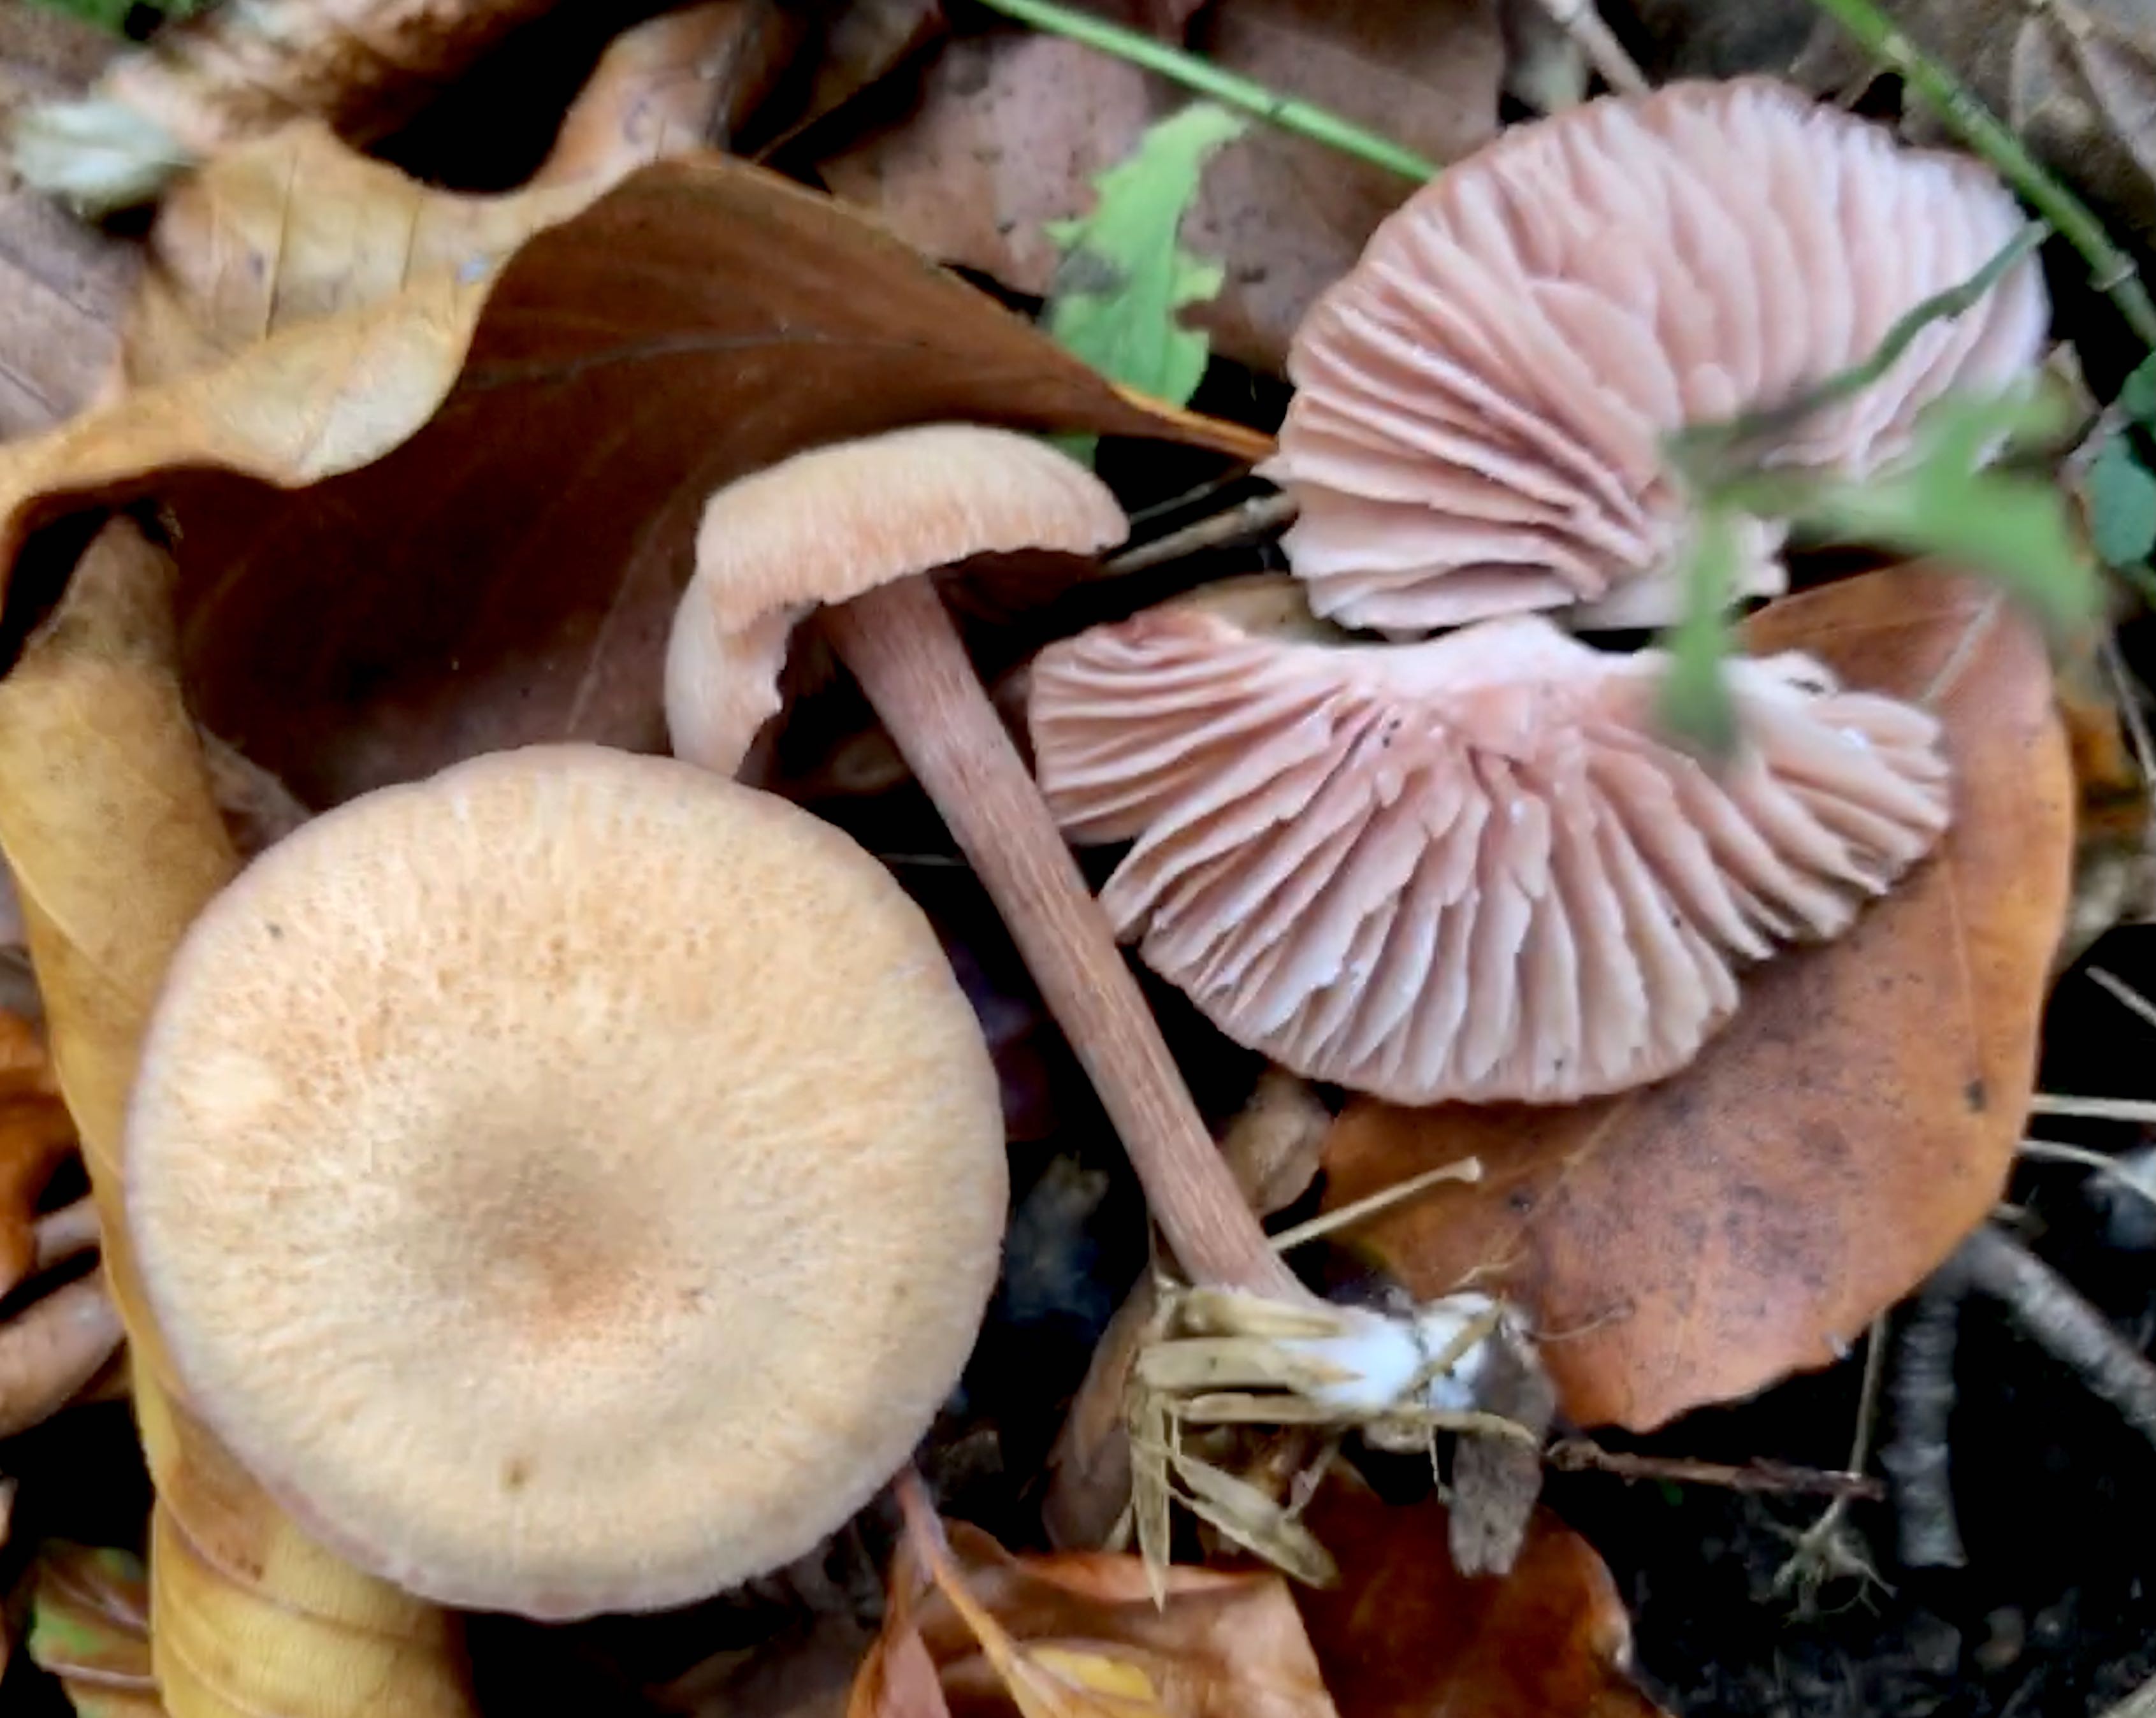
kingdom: Fungi
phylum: Basidiomycota
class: Agaricomycetes
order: Agaricales
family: Hydnangiaceae
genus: Laccaria
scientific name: Laccaria laccata
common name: rød ametysthat
